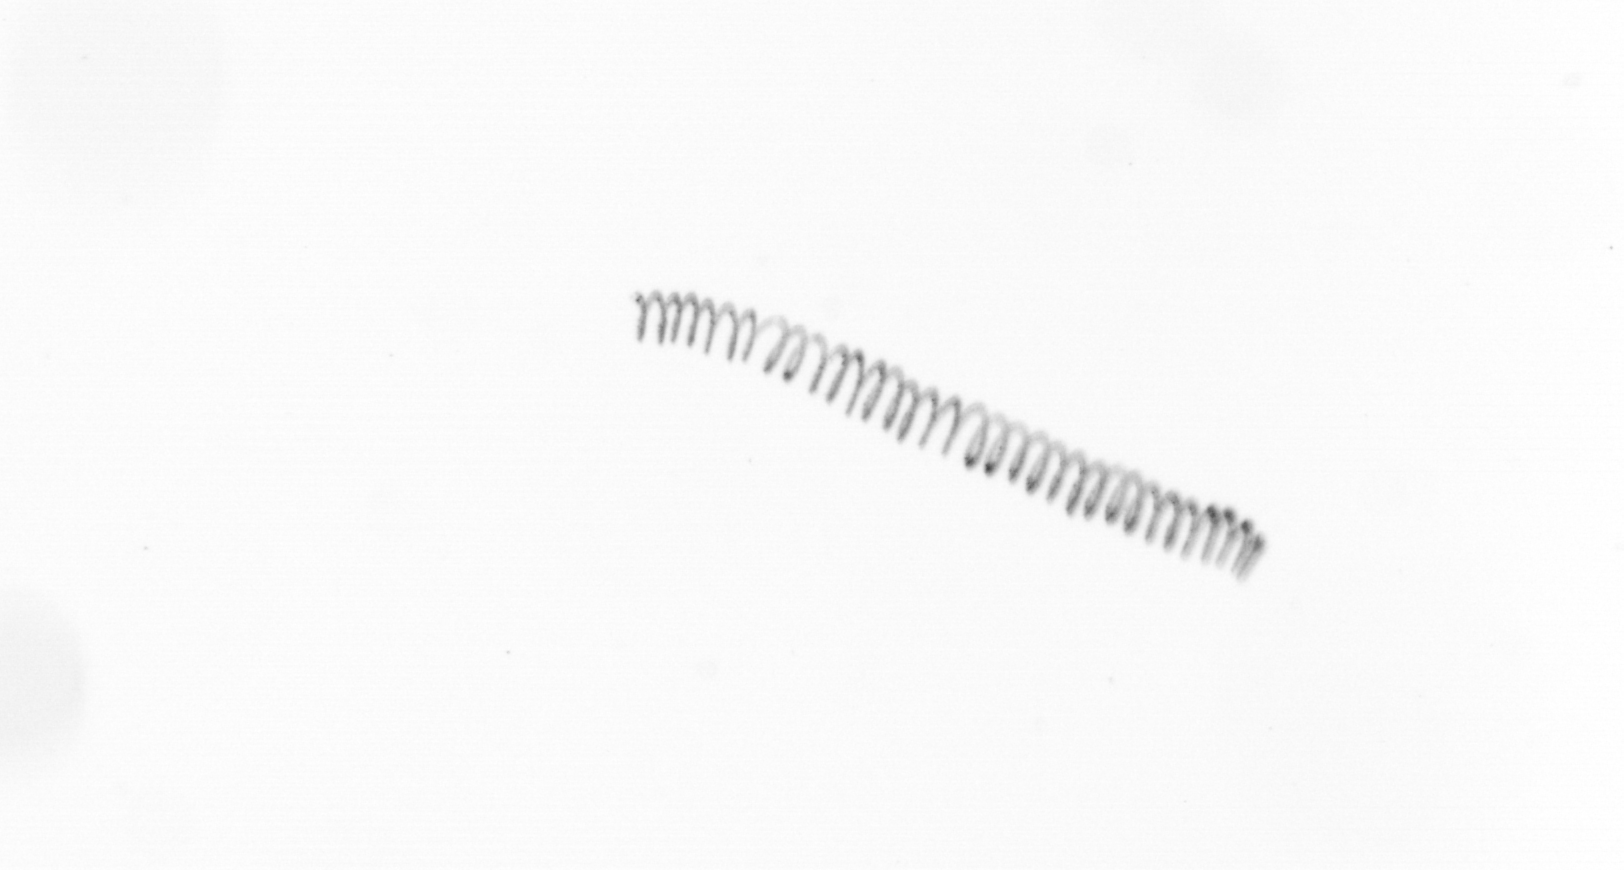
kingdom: Chromista
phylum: Ochrophyta
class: Bacillariophyceae
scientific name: Bacillariophyceae
